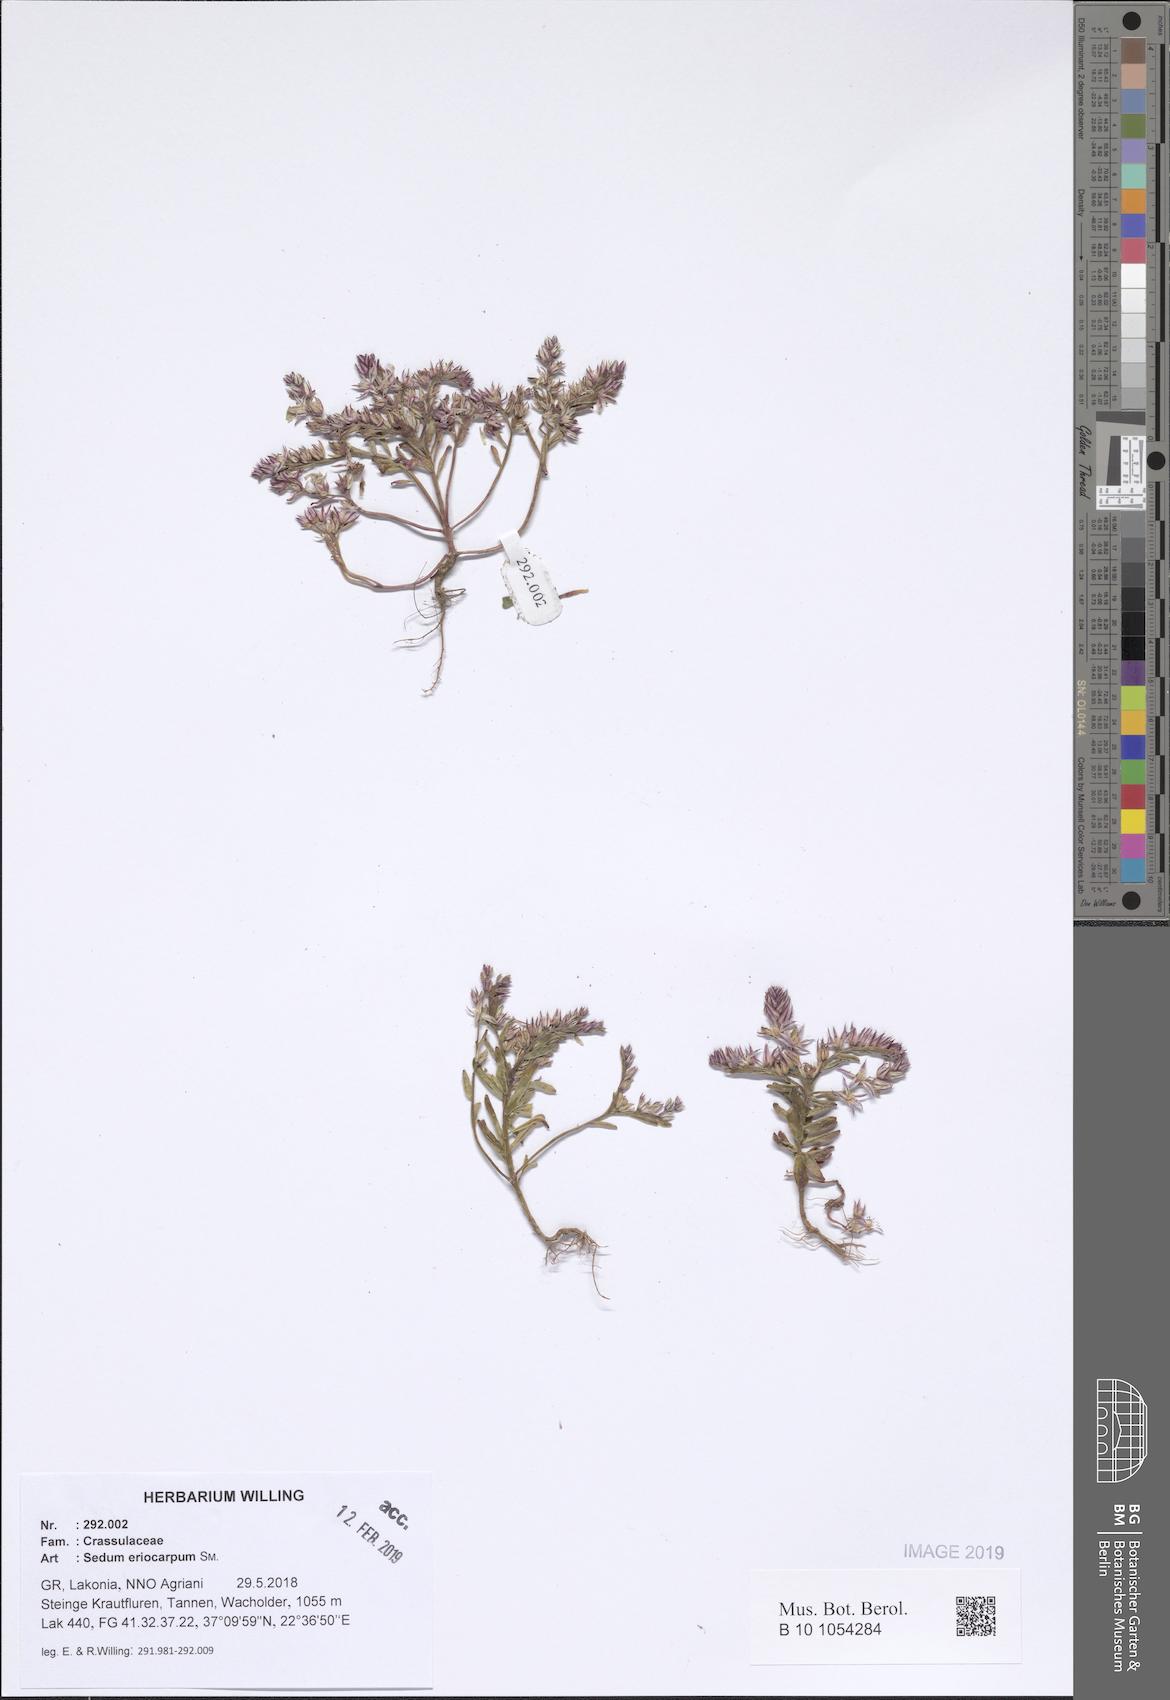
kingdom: Plantae
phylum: Tracheophyta
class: Magnoliopsida
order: Saxifragales
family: Crassulaceae
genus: Sedum
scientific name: Sedum eriocarpum
